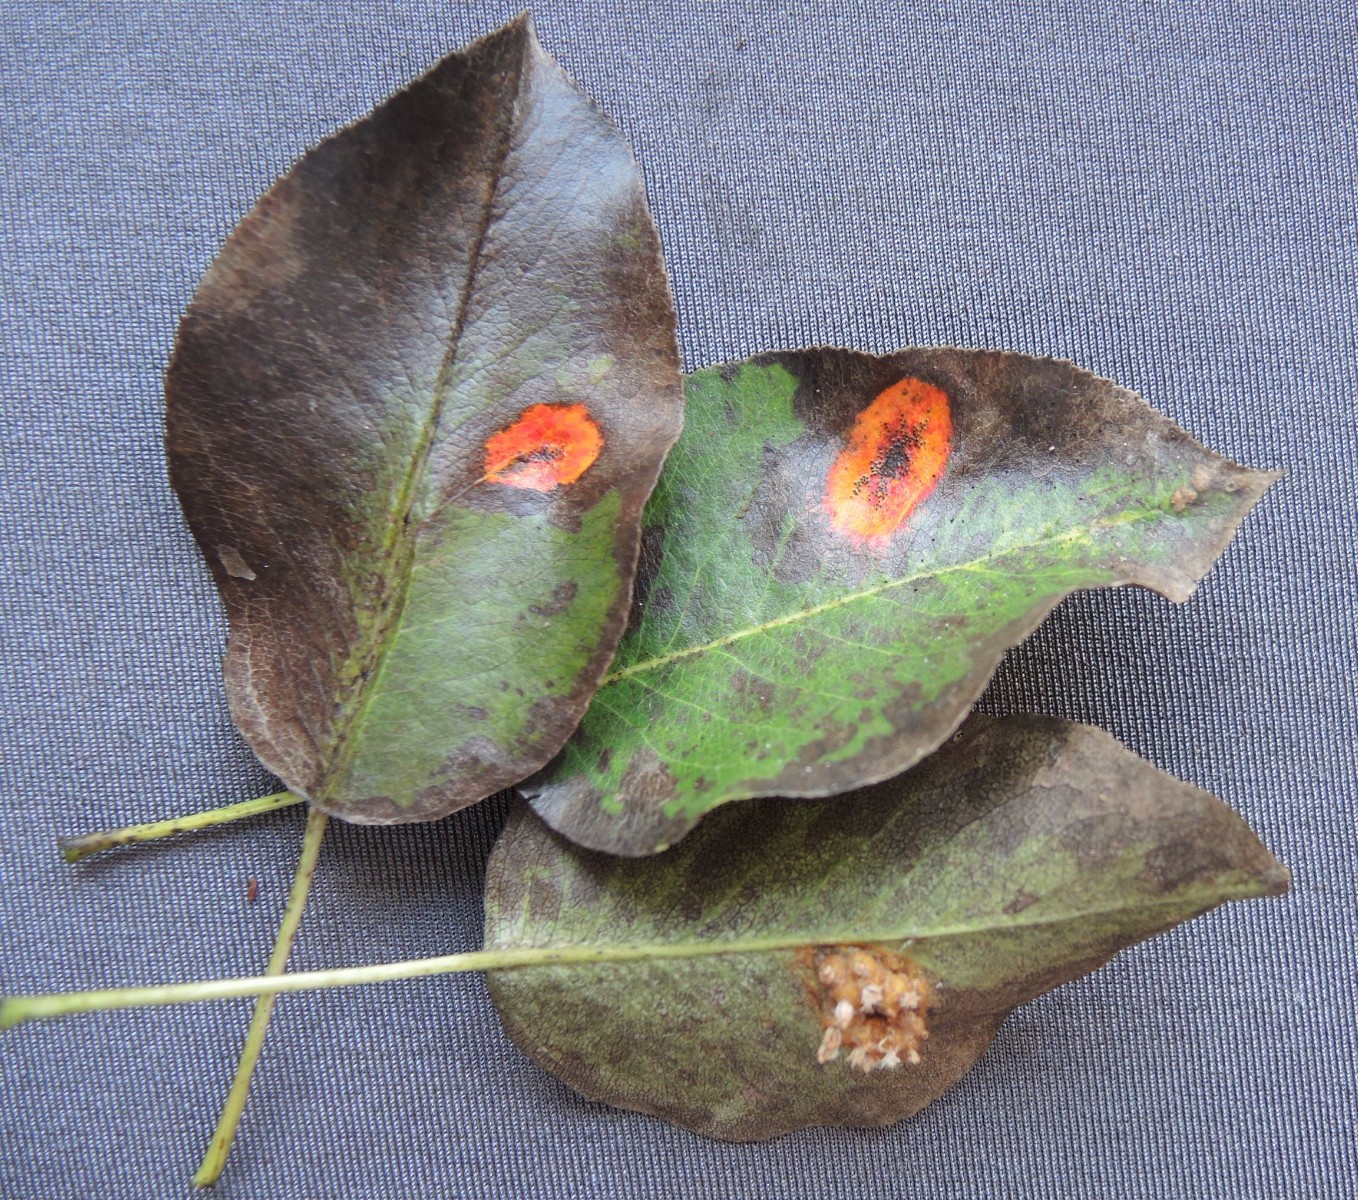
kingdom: Fungi
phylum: Basidiomycota
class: Pucciniomycetes
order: Pucciniales
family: Gymnosporangiaceae
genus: Gymnosporangium
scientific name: Gymnosporangium sabinae
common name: pæregitter-bævrerust
